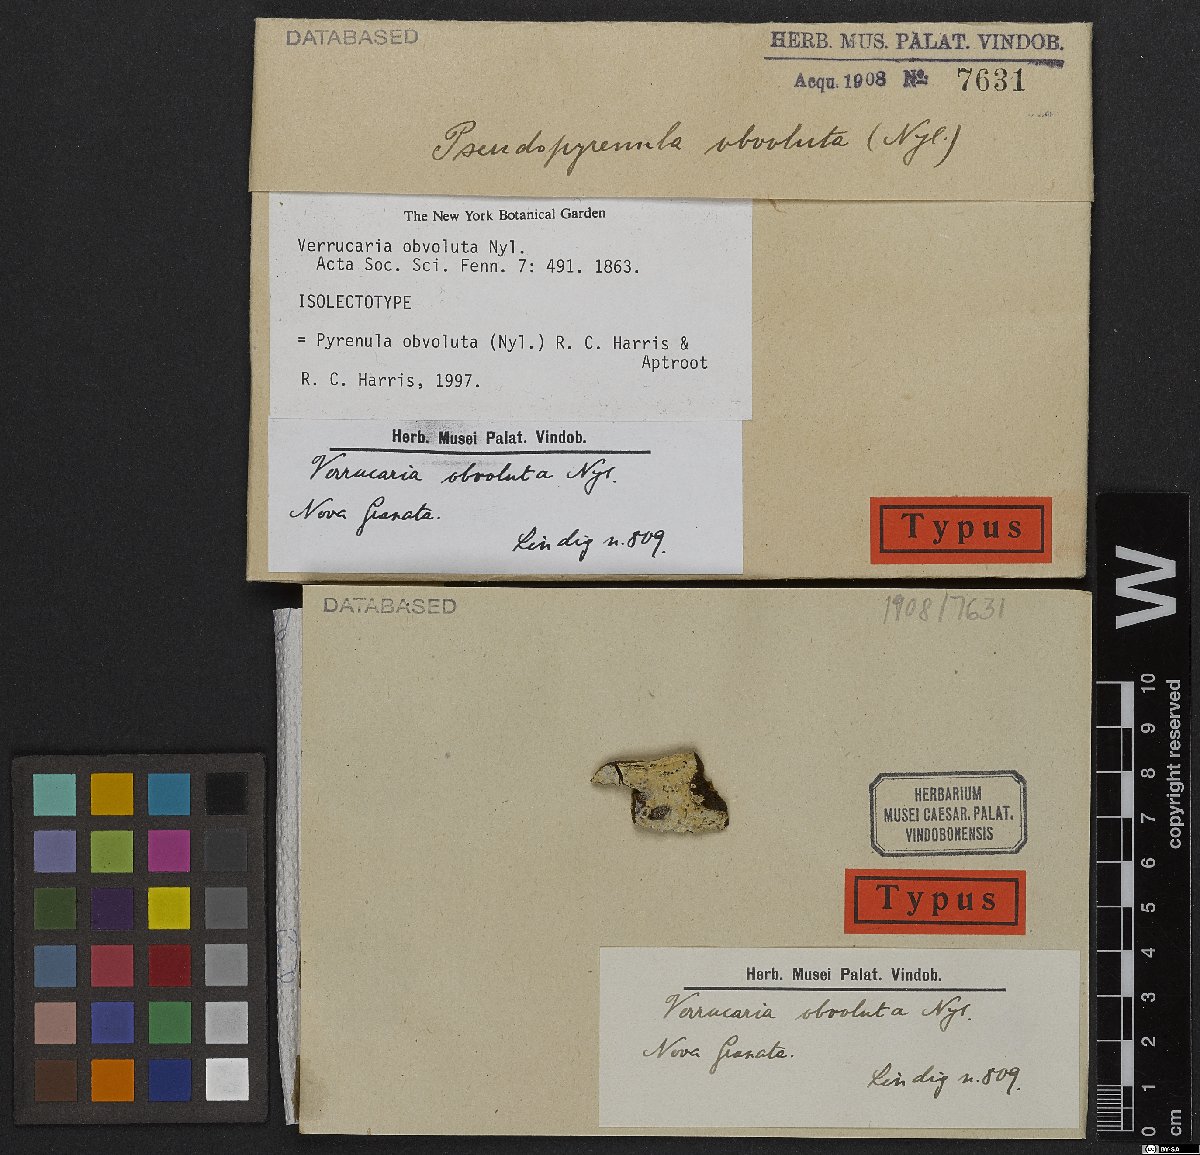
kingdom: Fungi
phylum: Ascomycota
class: Eurotiomycetes
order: Pyrenulales
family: Pyrenulaceae
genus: Pyrenula
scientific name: Pyrenula obvoluta
